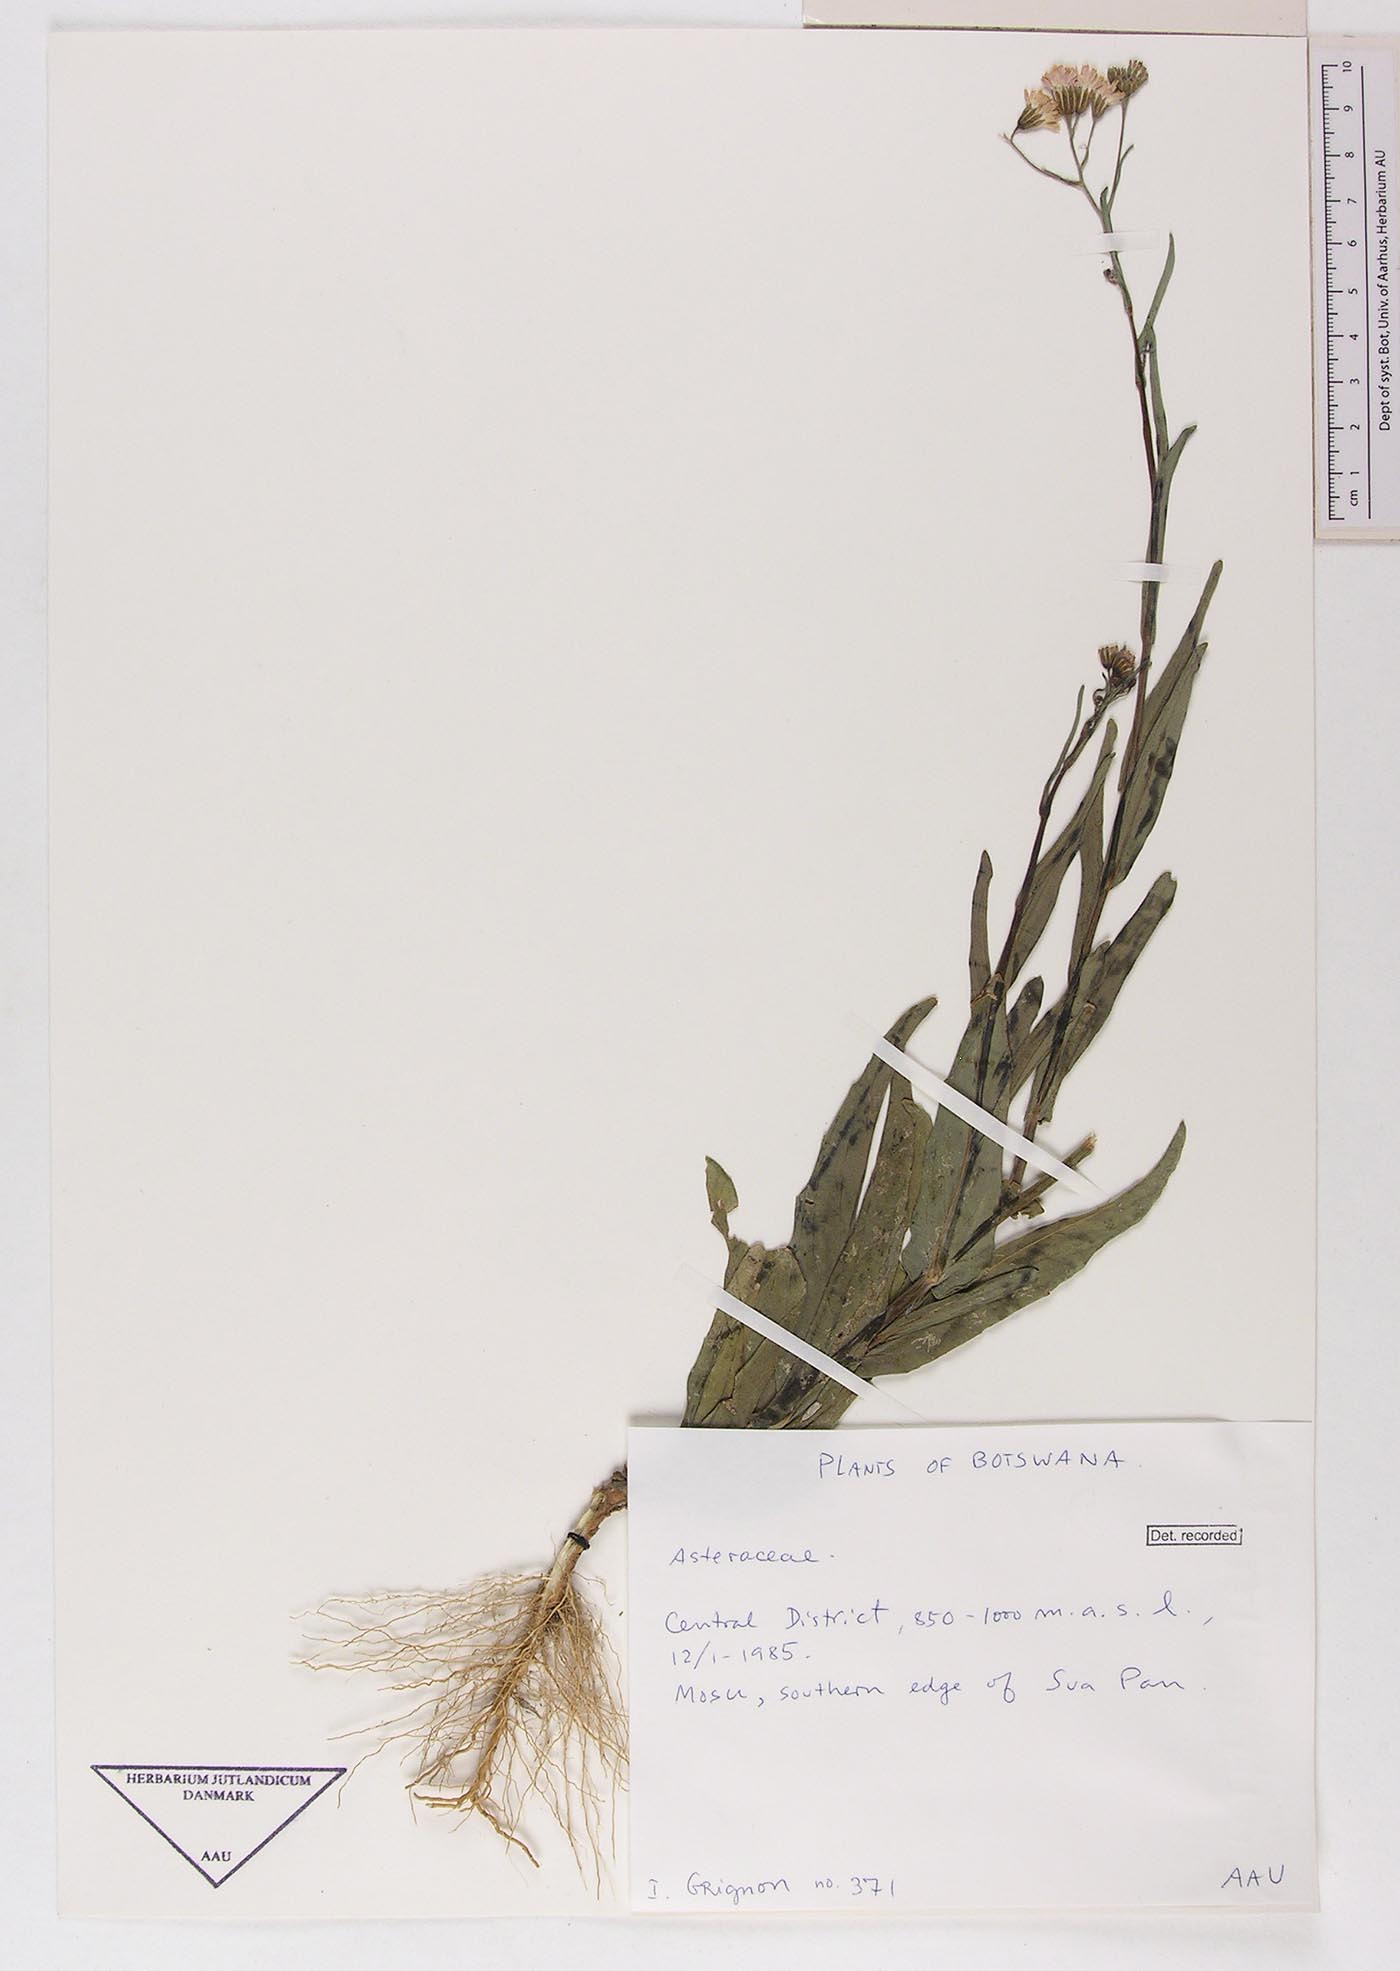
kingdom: Plantae
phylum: Tracheophyta
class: Magnoliopsida
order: Asterales
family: Asteraceae
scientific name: Asteraceae
